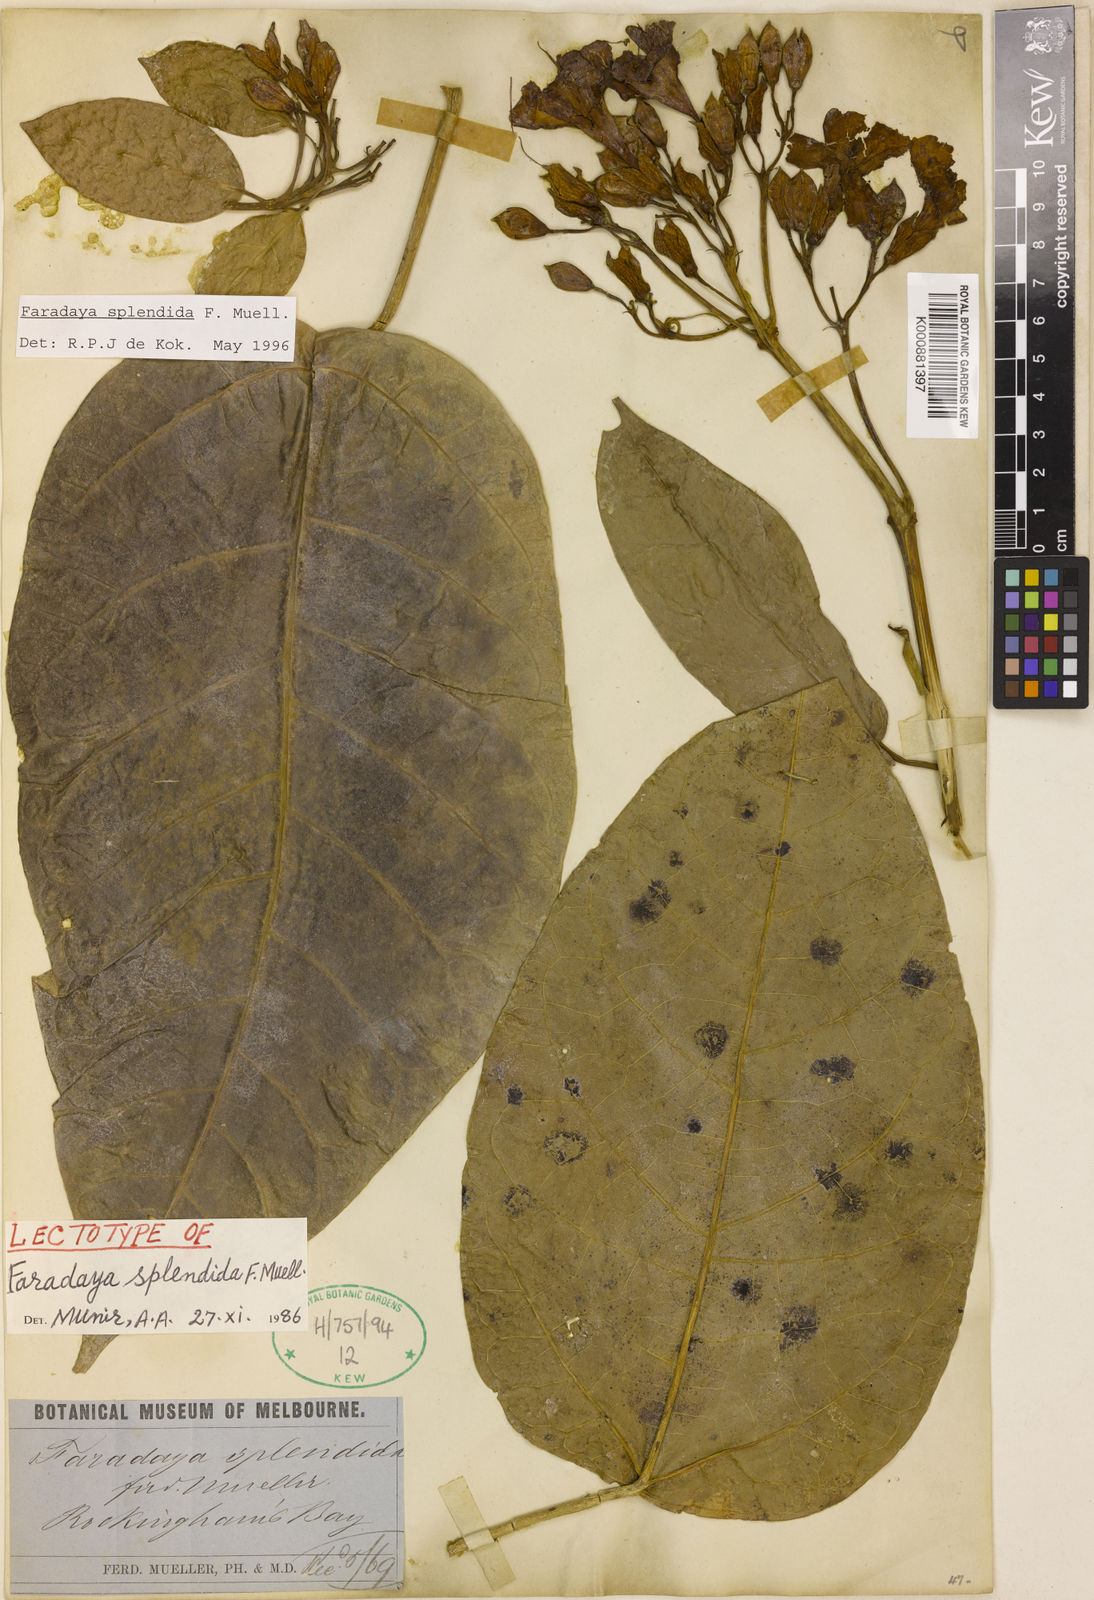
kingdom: Plantae
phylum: Tracheophyta
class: Magnoliopsida
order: Lamiales
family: Lamiaceae
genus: Oxera
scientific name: Oxera splendida
